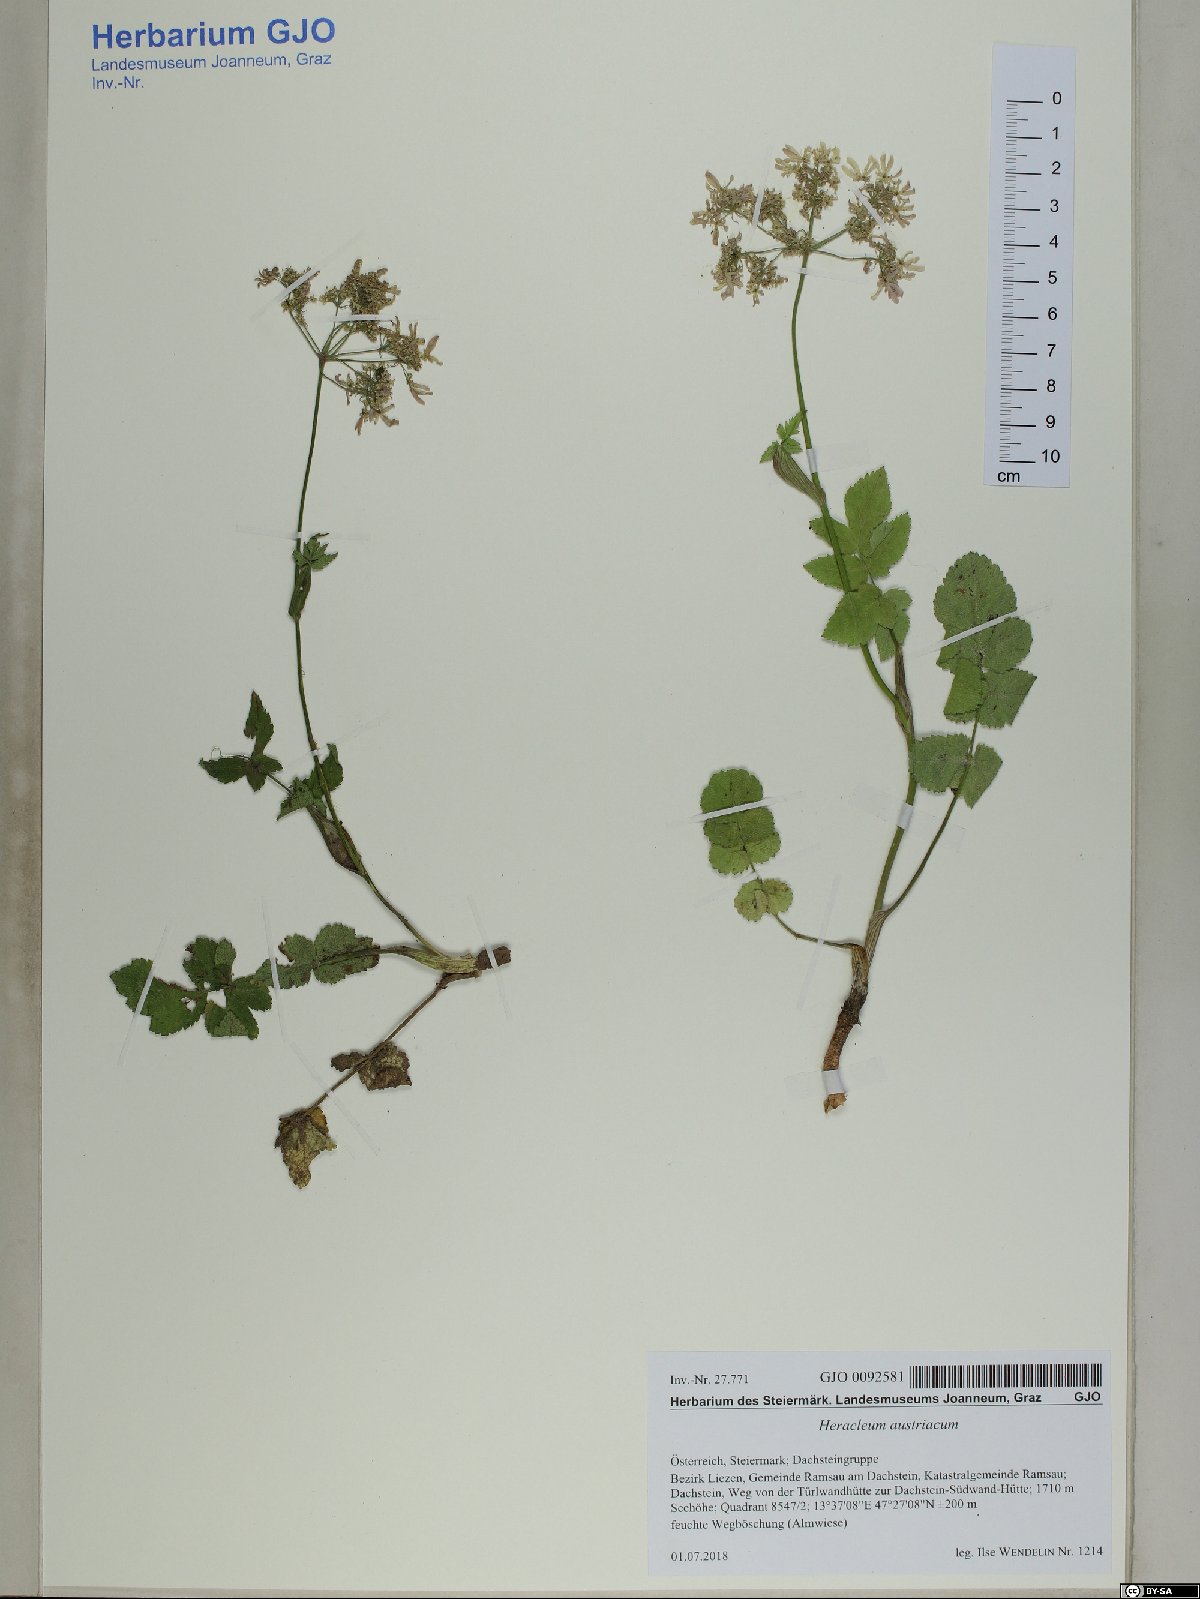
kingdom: Plantae
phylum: Tracheophyta
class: Magnoliopsida
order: Apiales
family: Apiaceae
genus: Heracleum
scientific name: Heracleum austriacum
